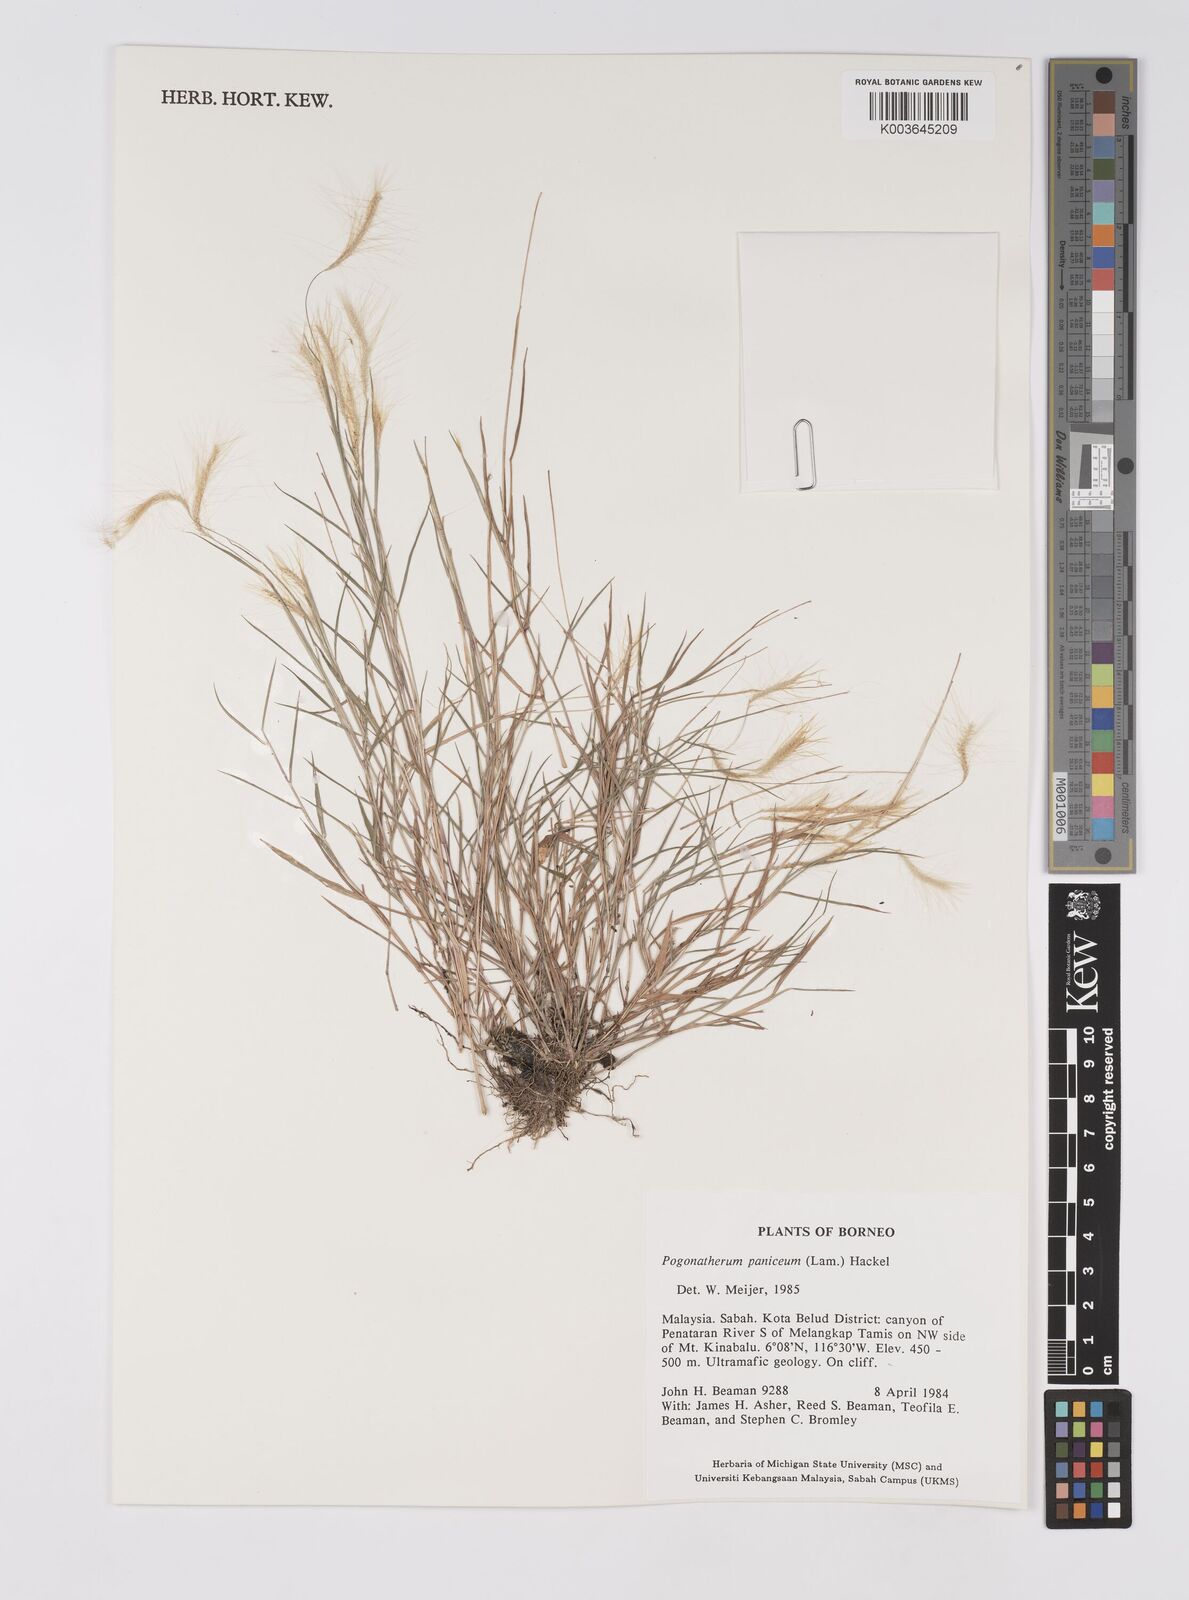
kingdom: Plantae
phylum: Tracheophyta
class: Liliopsida
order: Poales
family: Poaceae
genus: Pogonatherum
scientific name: Pogonatherum paniceum
